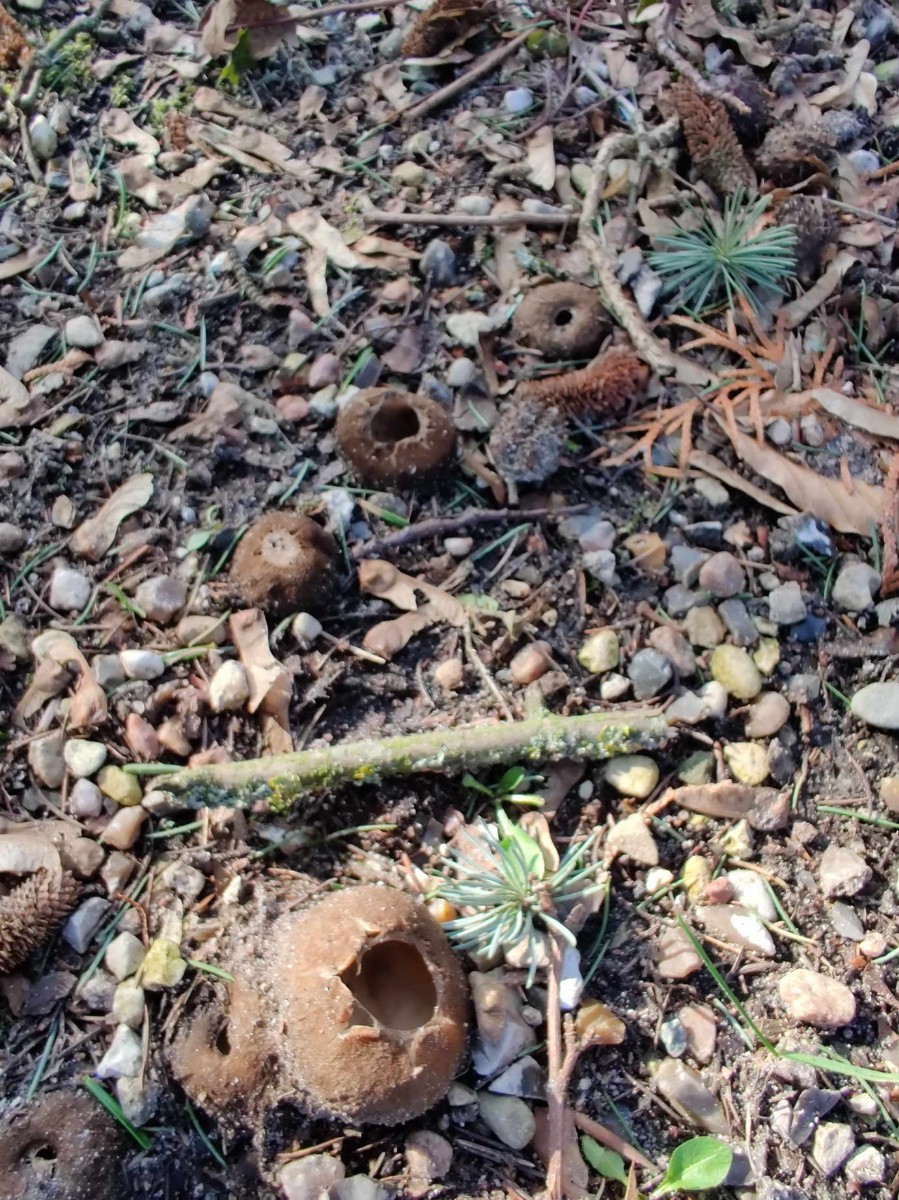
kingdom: Fungi
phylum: Ascomycota
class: Pezizomycetes
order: Pezizales
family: Pyronemataceae
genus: Geopora
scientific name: Geopora sumneriana
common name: vår-jordbæger
